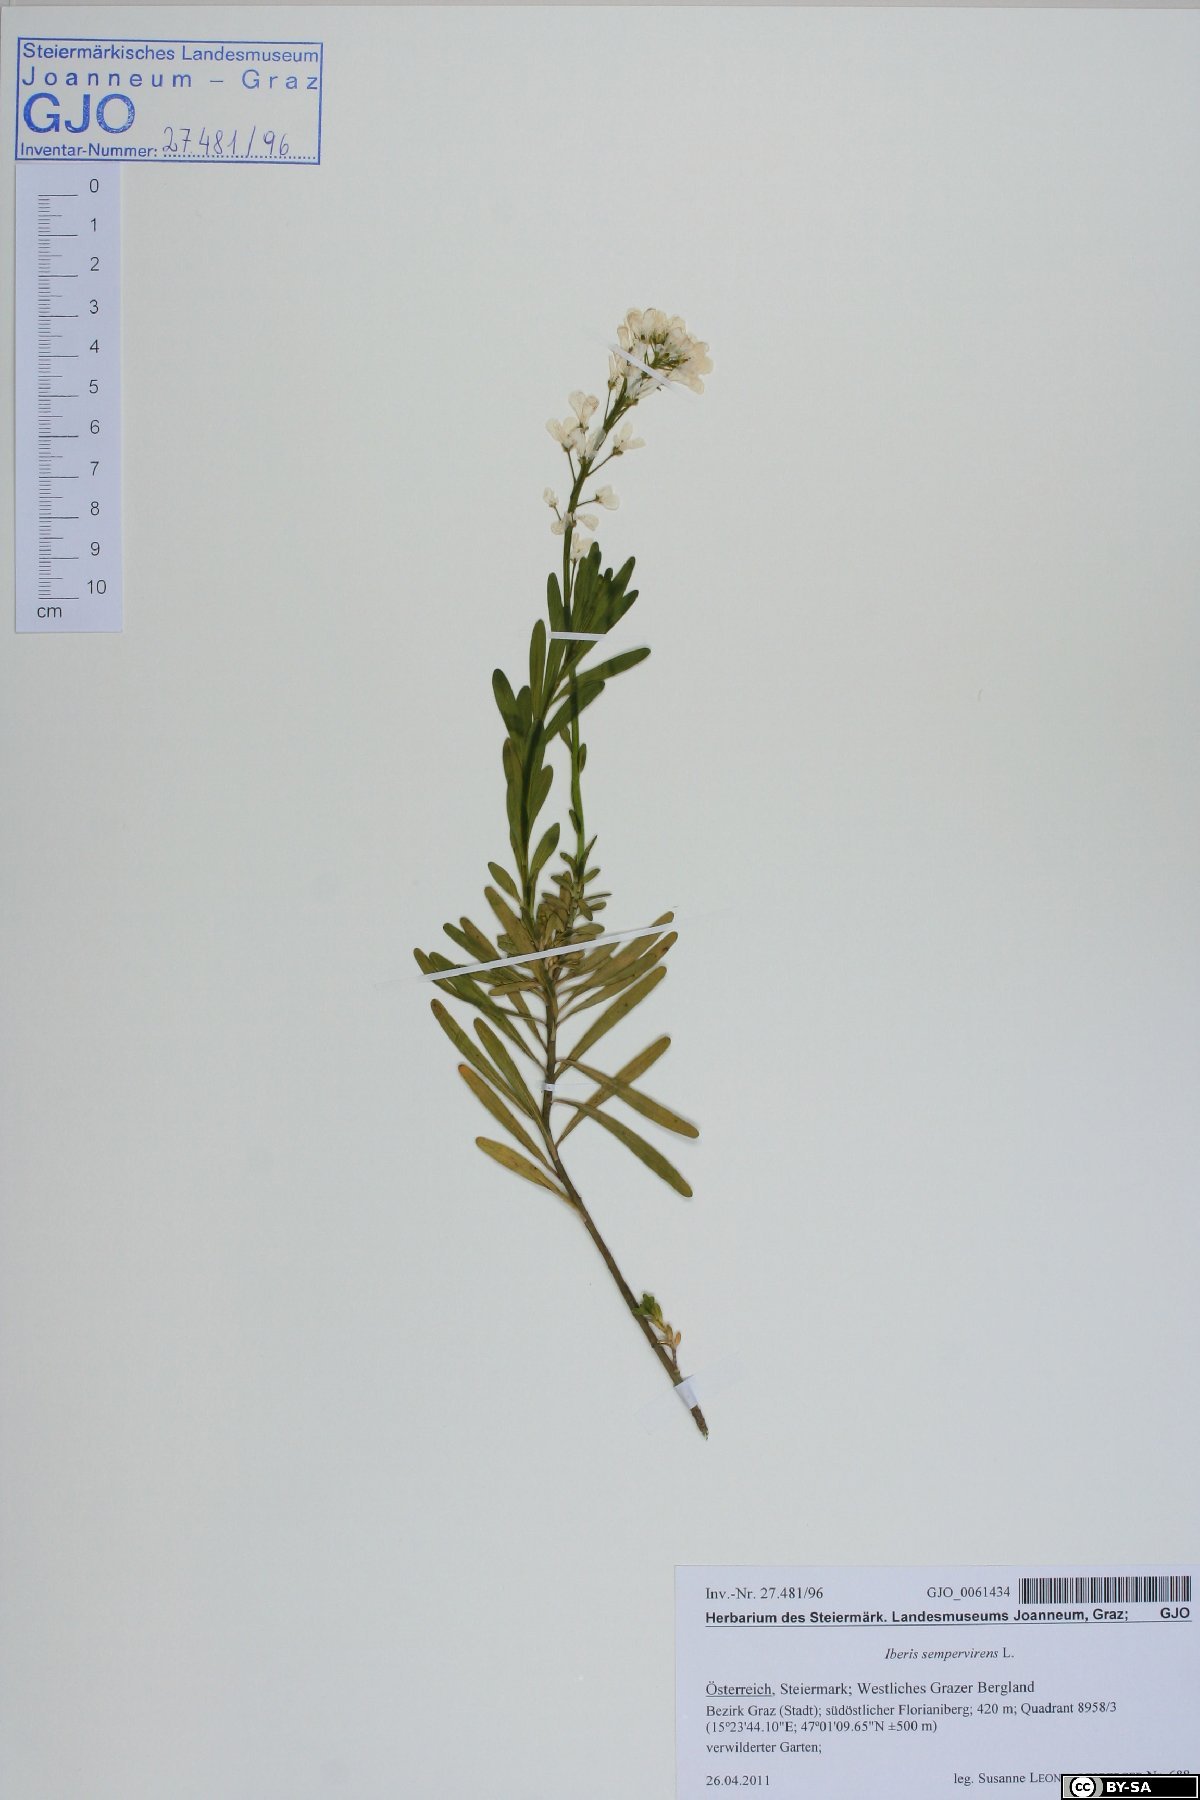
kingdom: Plantae
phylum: Tracheophyta
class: Magnoliopsida
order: Brassicales
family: Brassicaceae
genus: Iberis
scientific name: Iberis sempervirens
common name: Evergreen candytuft
